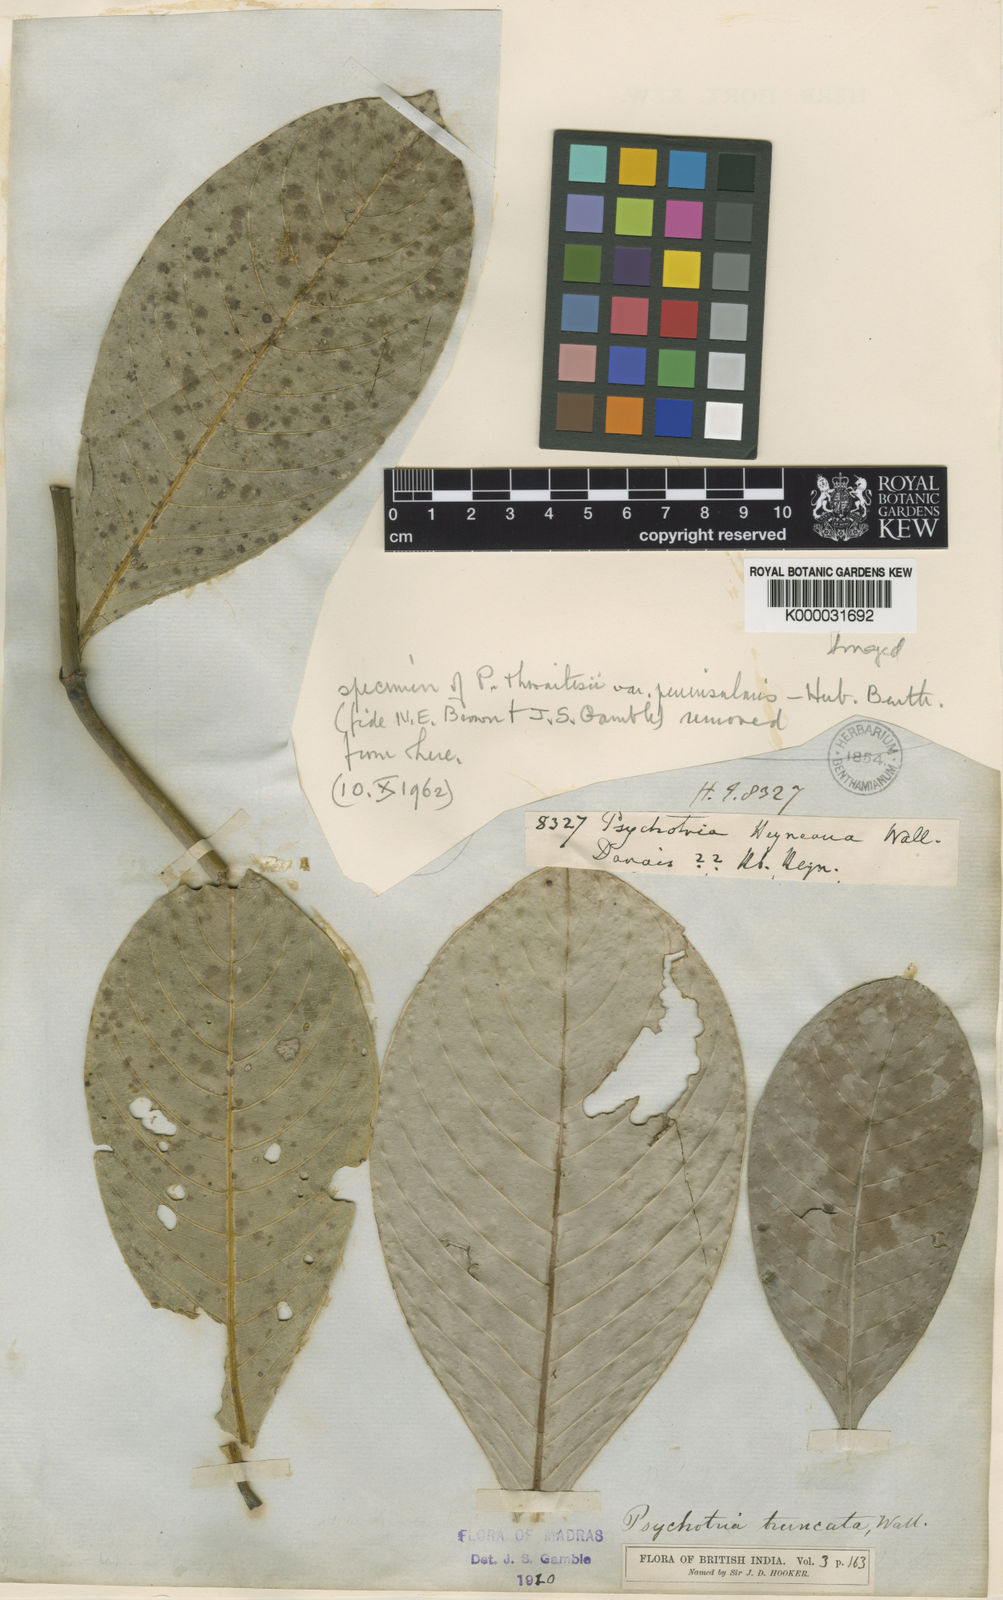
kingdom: Plantae
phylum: Tracheophyta
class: Magnoliopsida
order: Gentianales
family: Rubiaceae
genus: Psychotria
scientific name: Psychotria truncata
